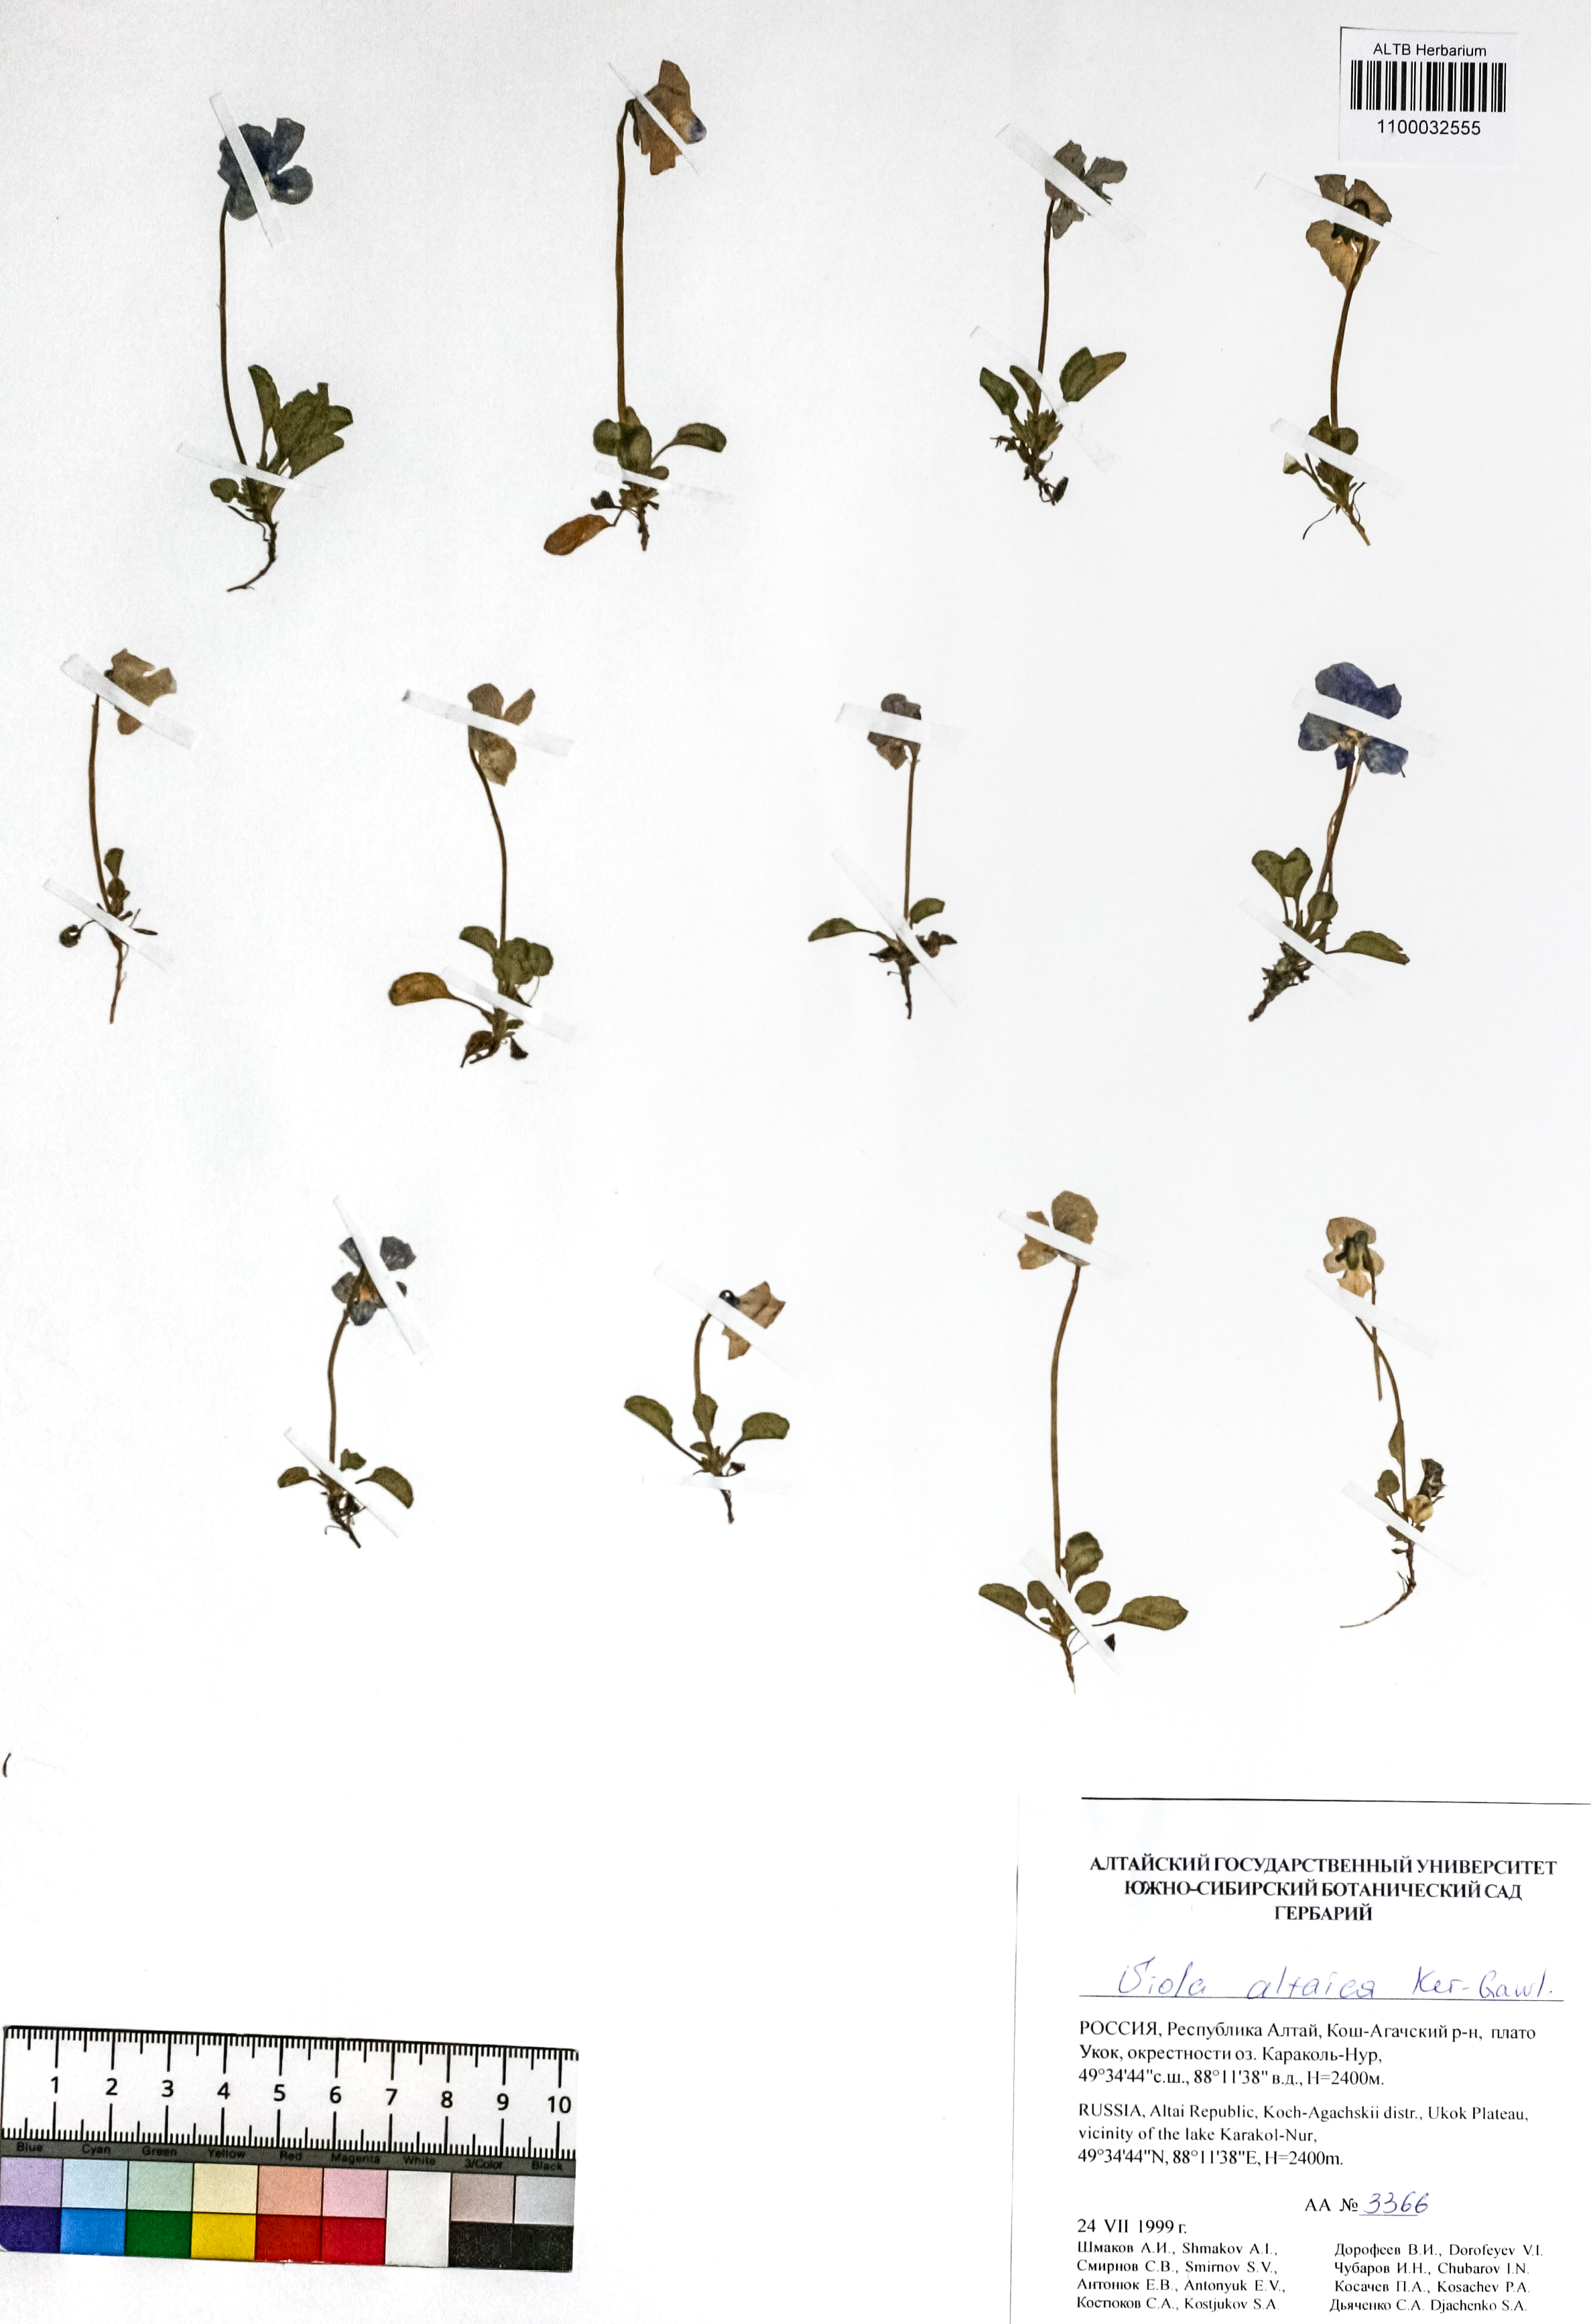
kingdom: Plantae
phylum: Tracheophyta
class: Magnoliopsida
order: Malpighiales
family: Violaceae
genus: Viola
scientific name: Viola altaica
